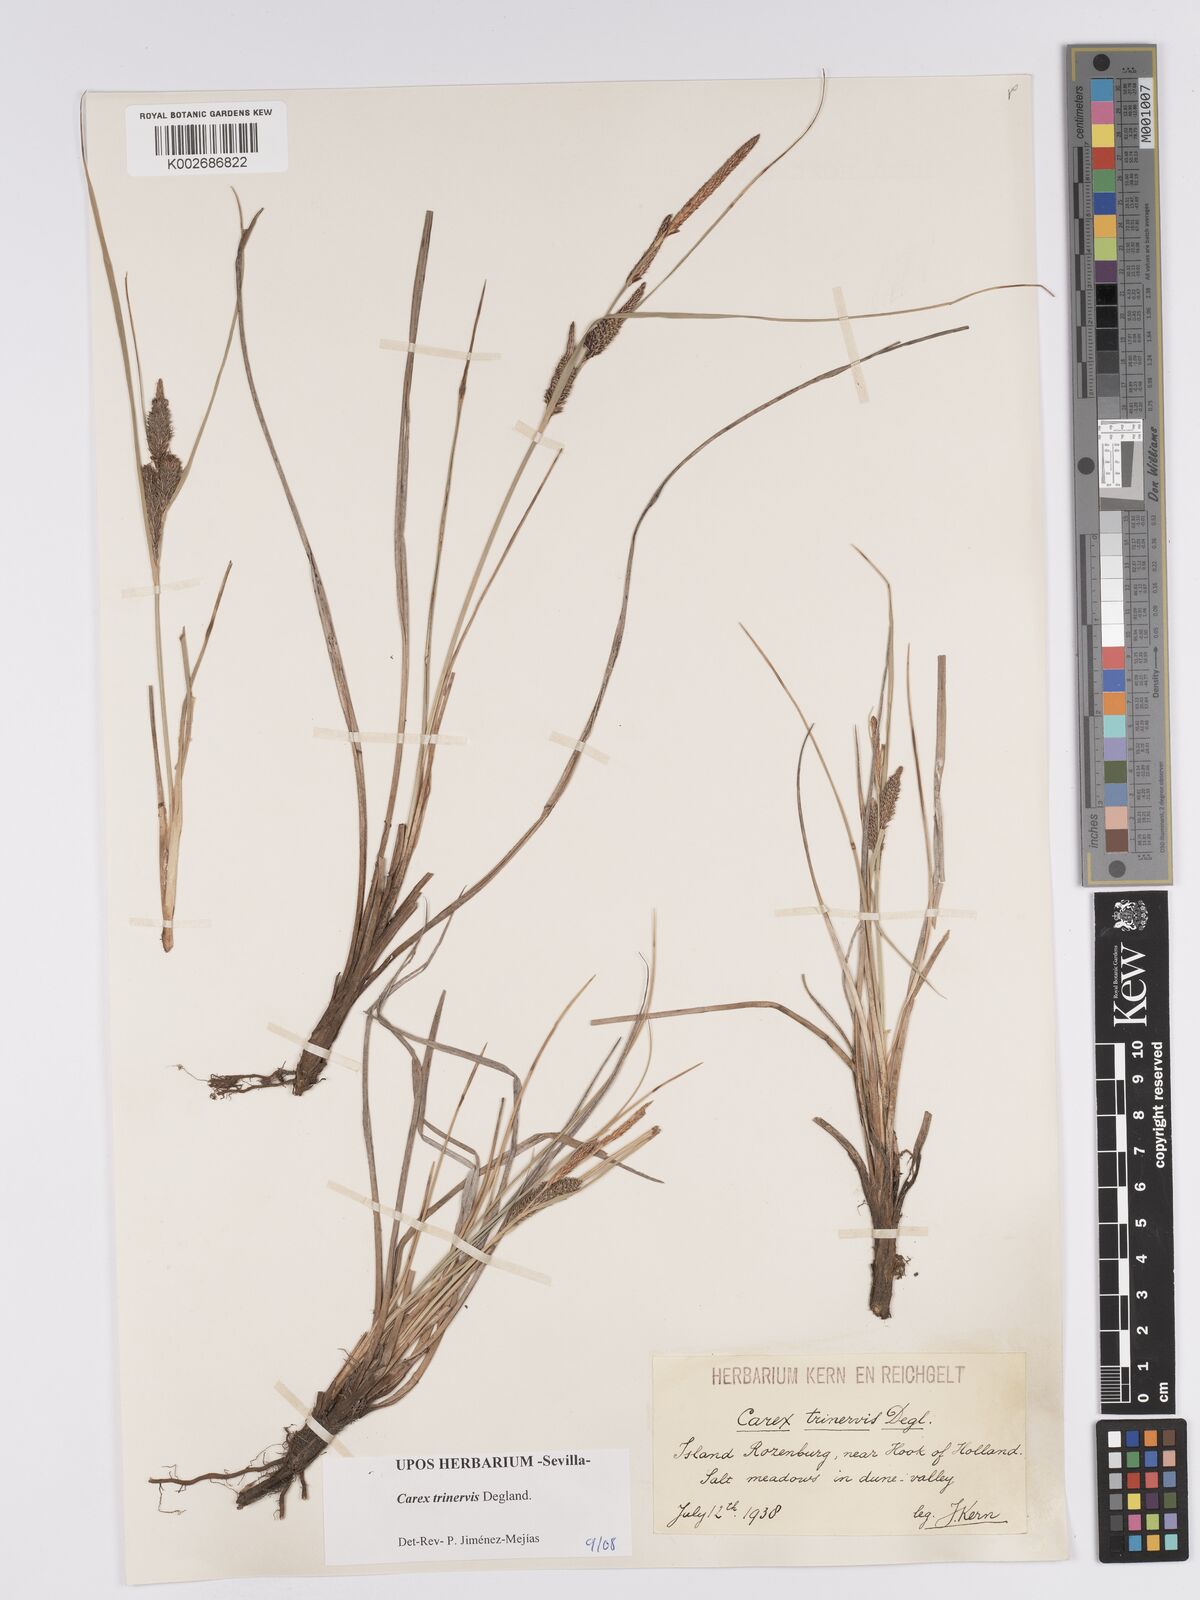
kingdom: Plantae
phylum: Tracheophyta
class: Liliopsida
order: Poales
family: Cyperaceae
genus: Carex
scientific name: Carex trinervis
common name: Three-nerved sedge
